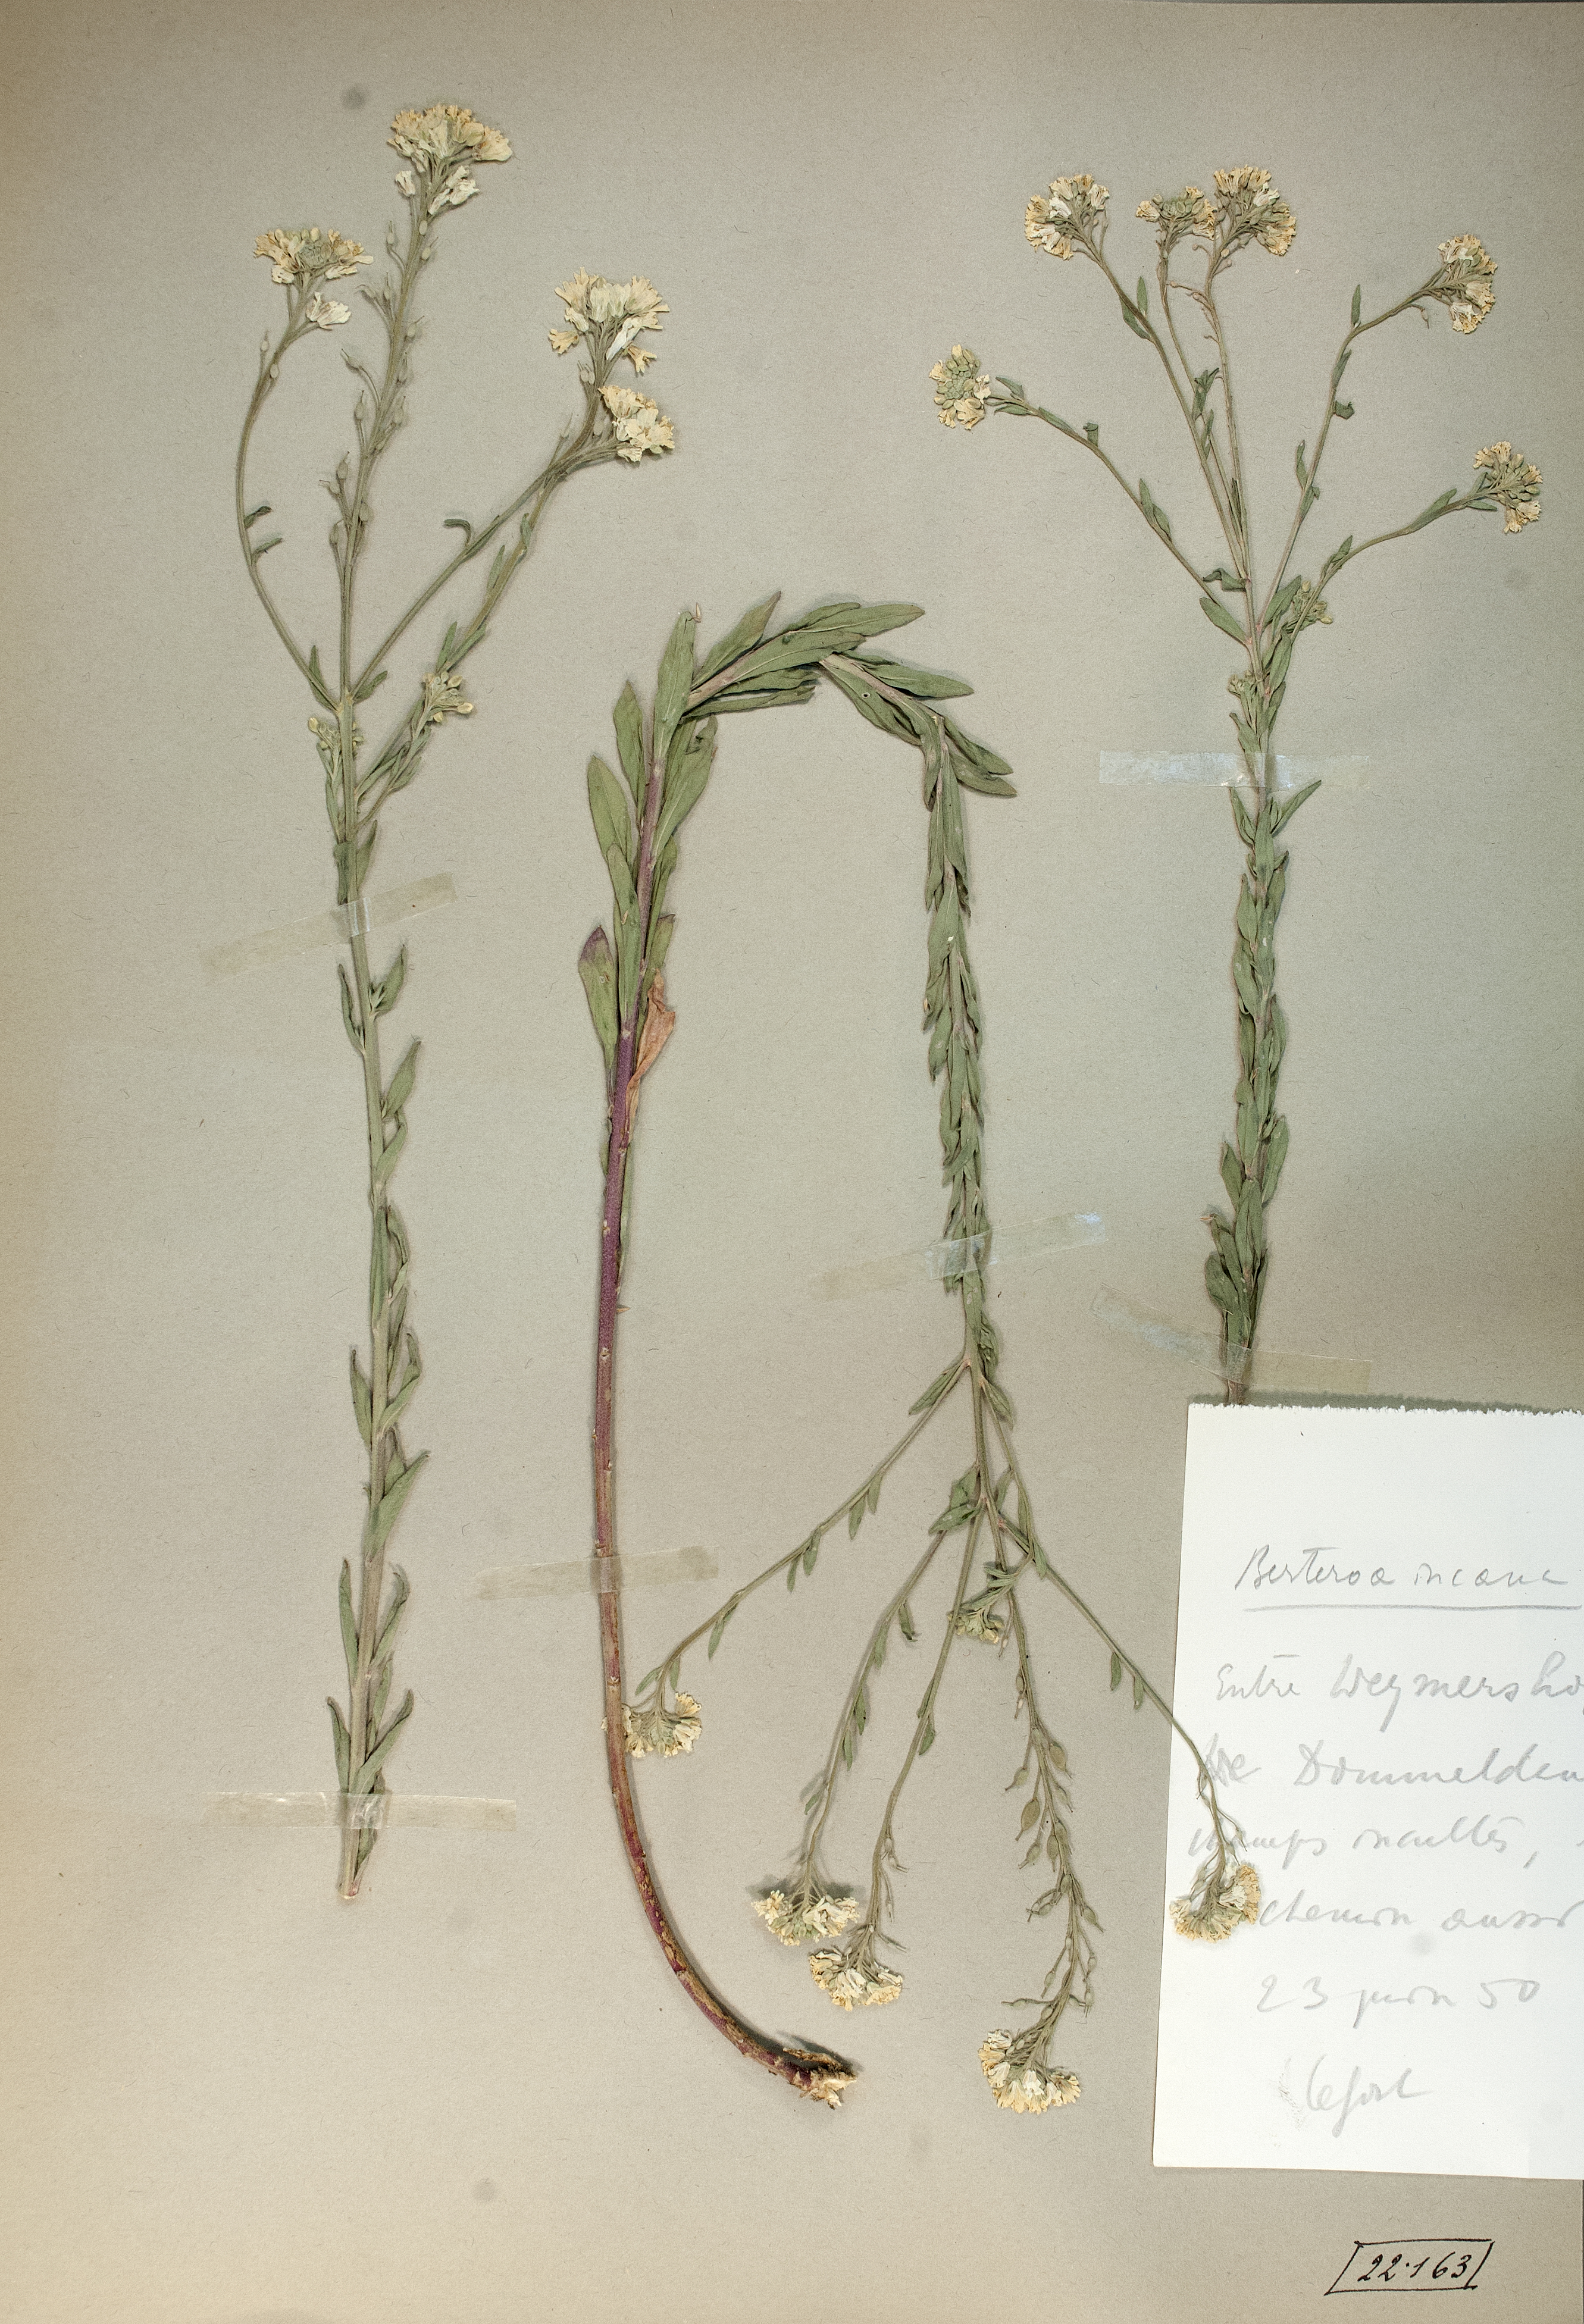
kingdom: Plantae
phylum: Tracheophyta
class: Magnoliopsida
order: Brassicales
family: Brassicaceae
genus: Berteroa
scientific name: Berteroa incana
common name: Hoary alison
